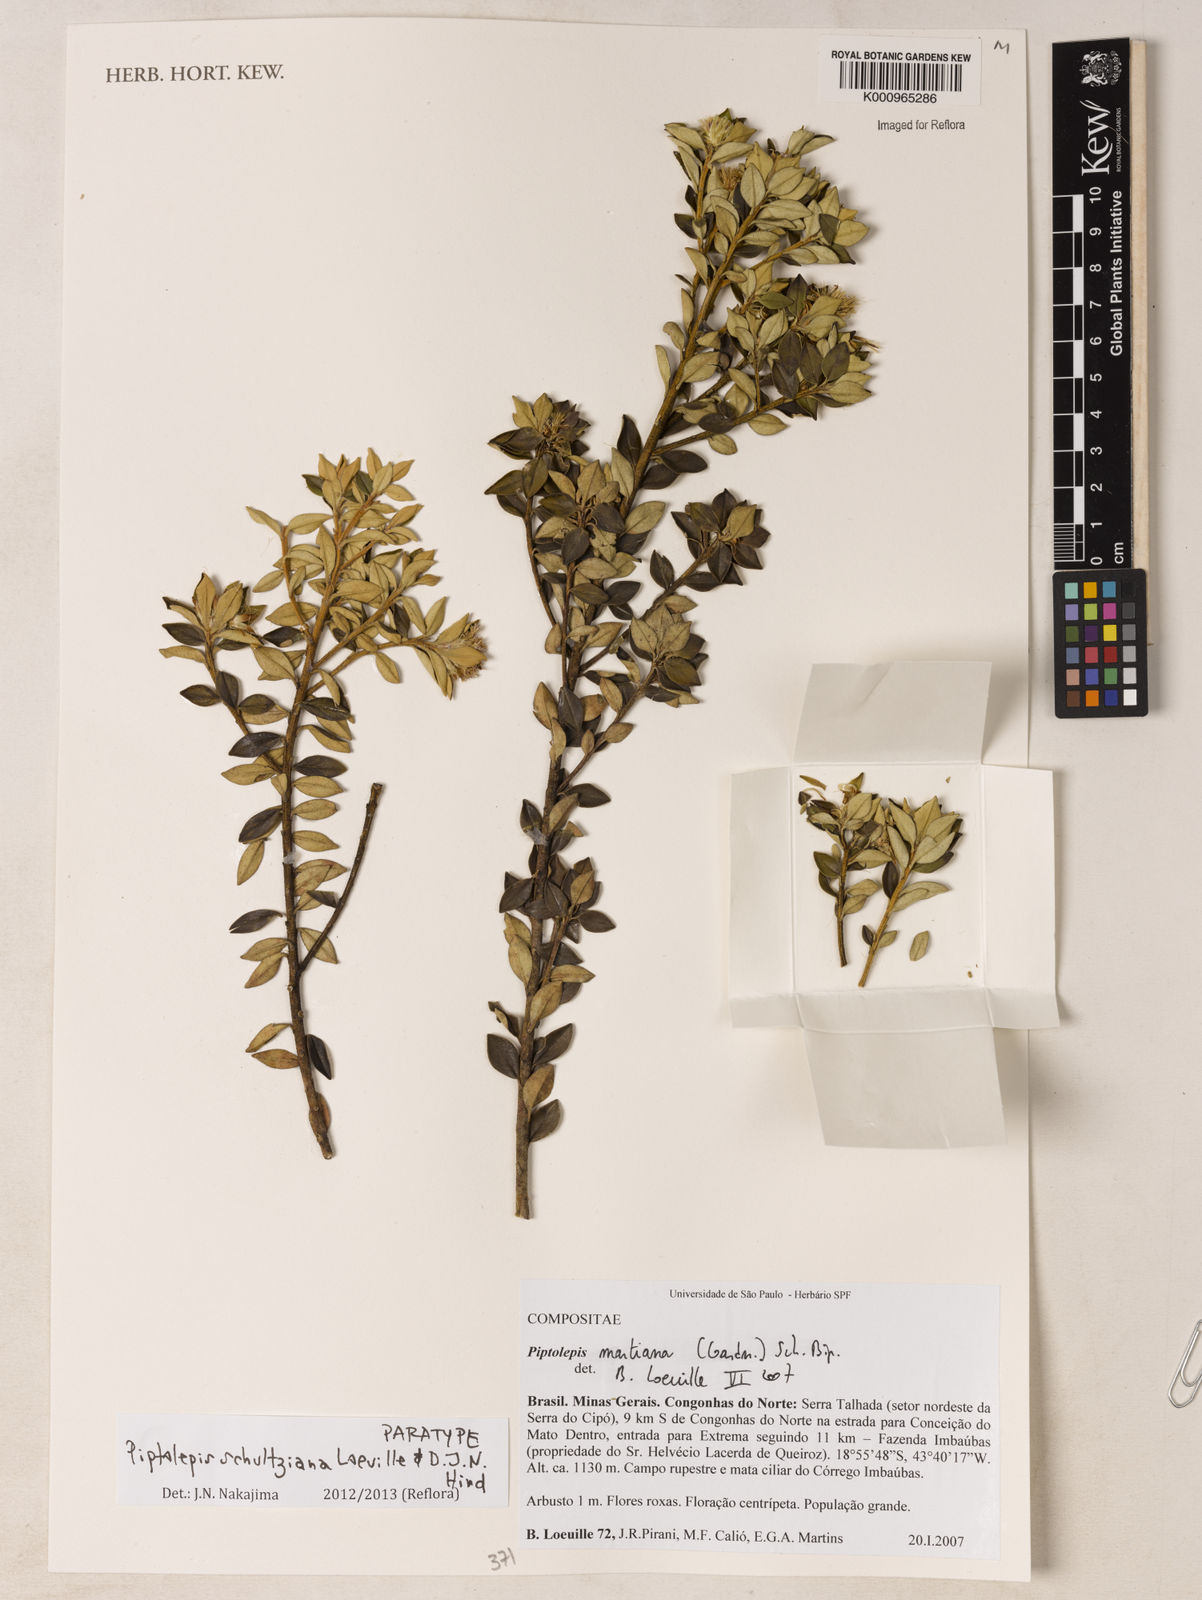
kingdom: Plantae
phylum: Tracheophyta
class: Magnoliopsida
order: Asterales
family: Asteraceae
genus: Piptolepis
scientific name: Piptolepis schultziana
